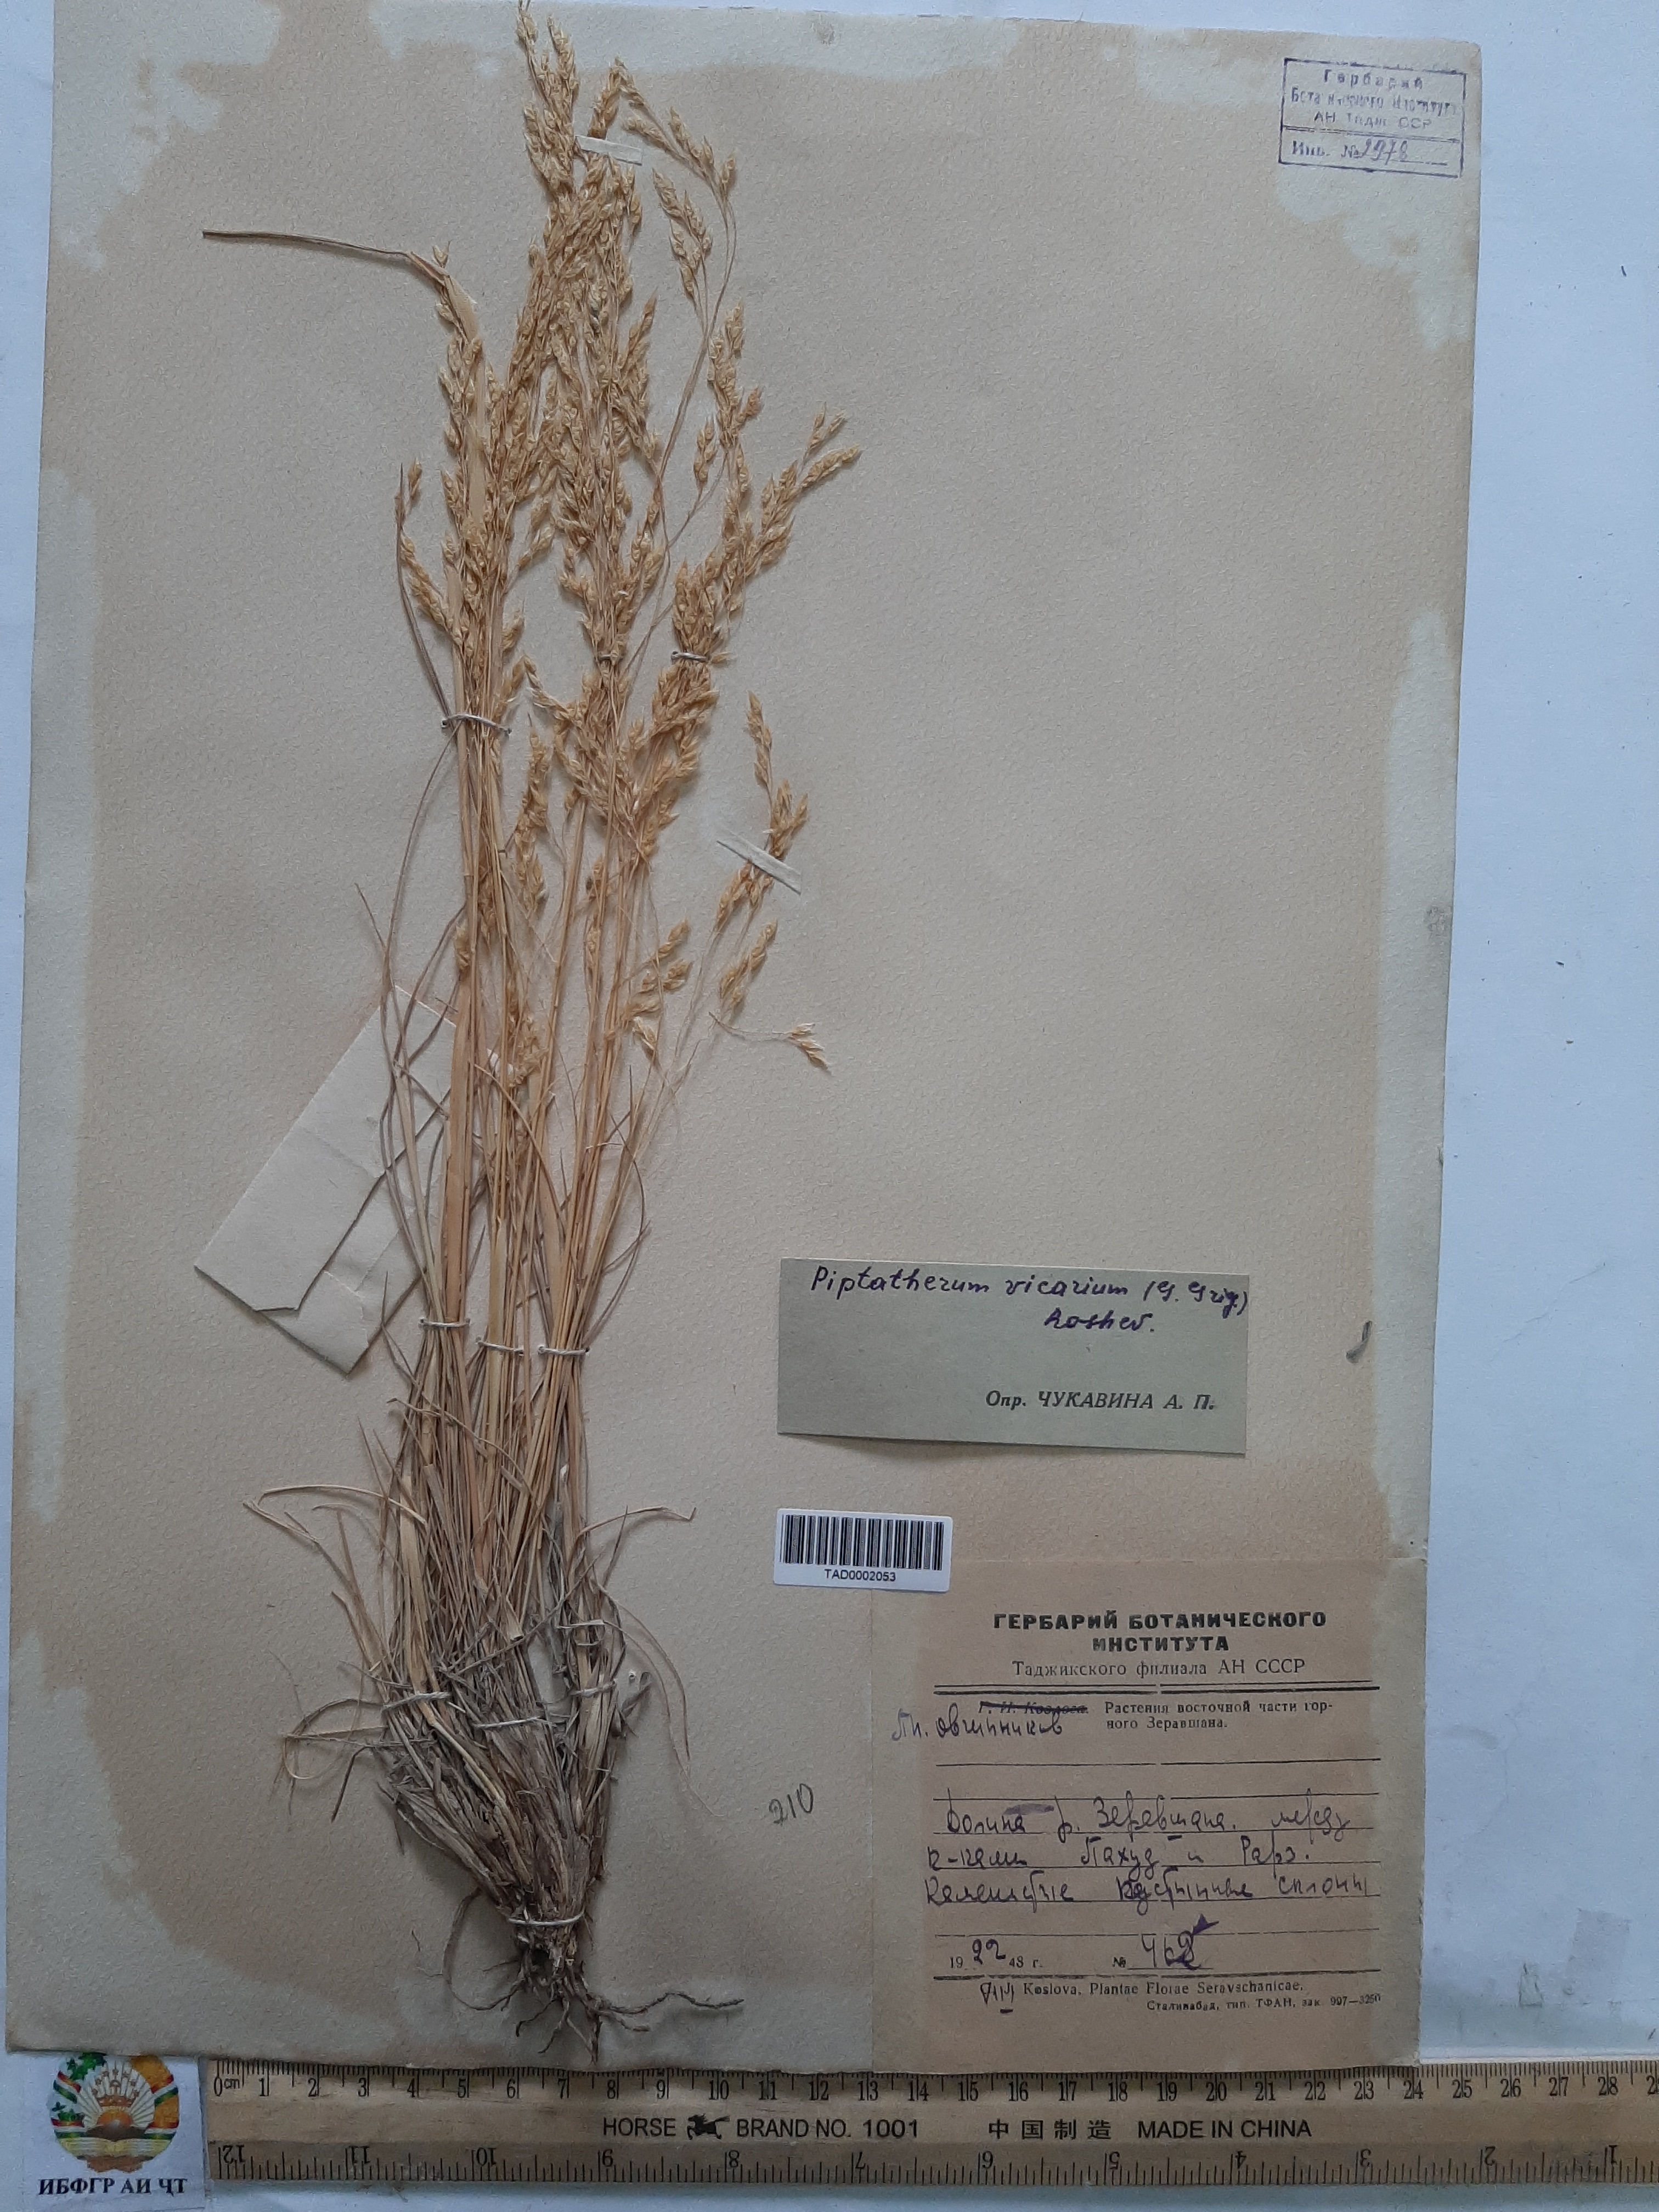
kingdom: Plantae
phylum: Tracheophyta
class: Liliopsida
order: Poales
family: Poaceae
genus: Piptatherum
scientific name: Piptatherum sogdianum
